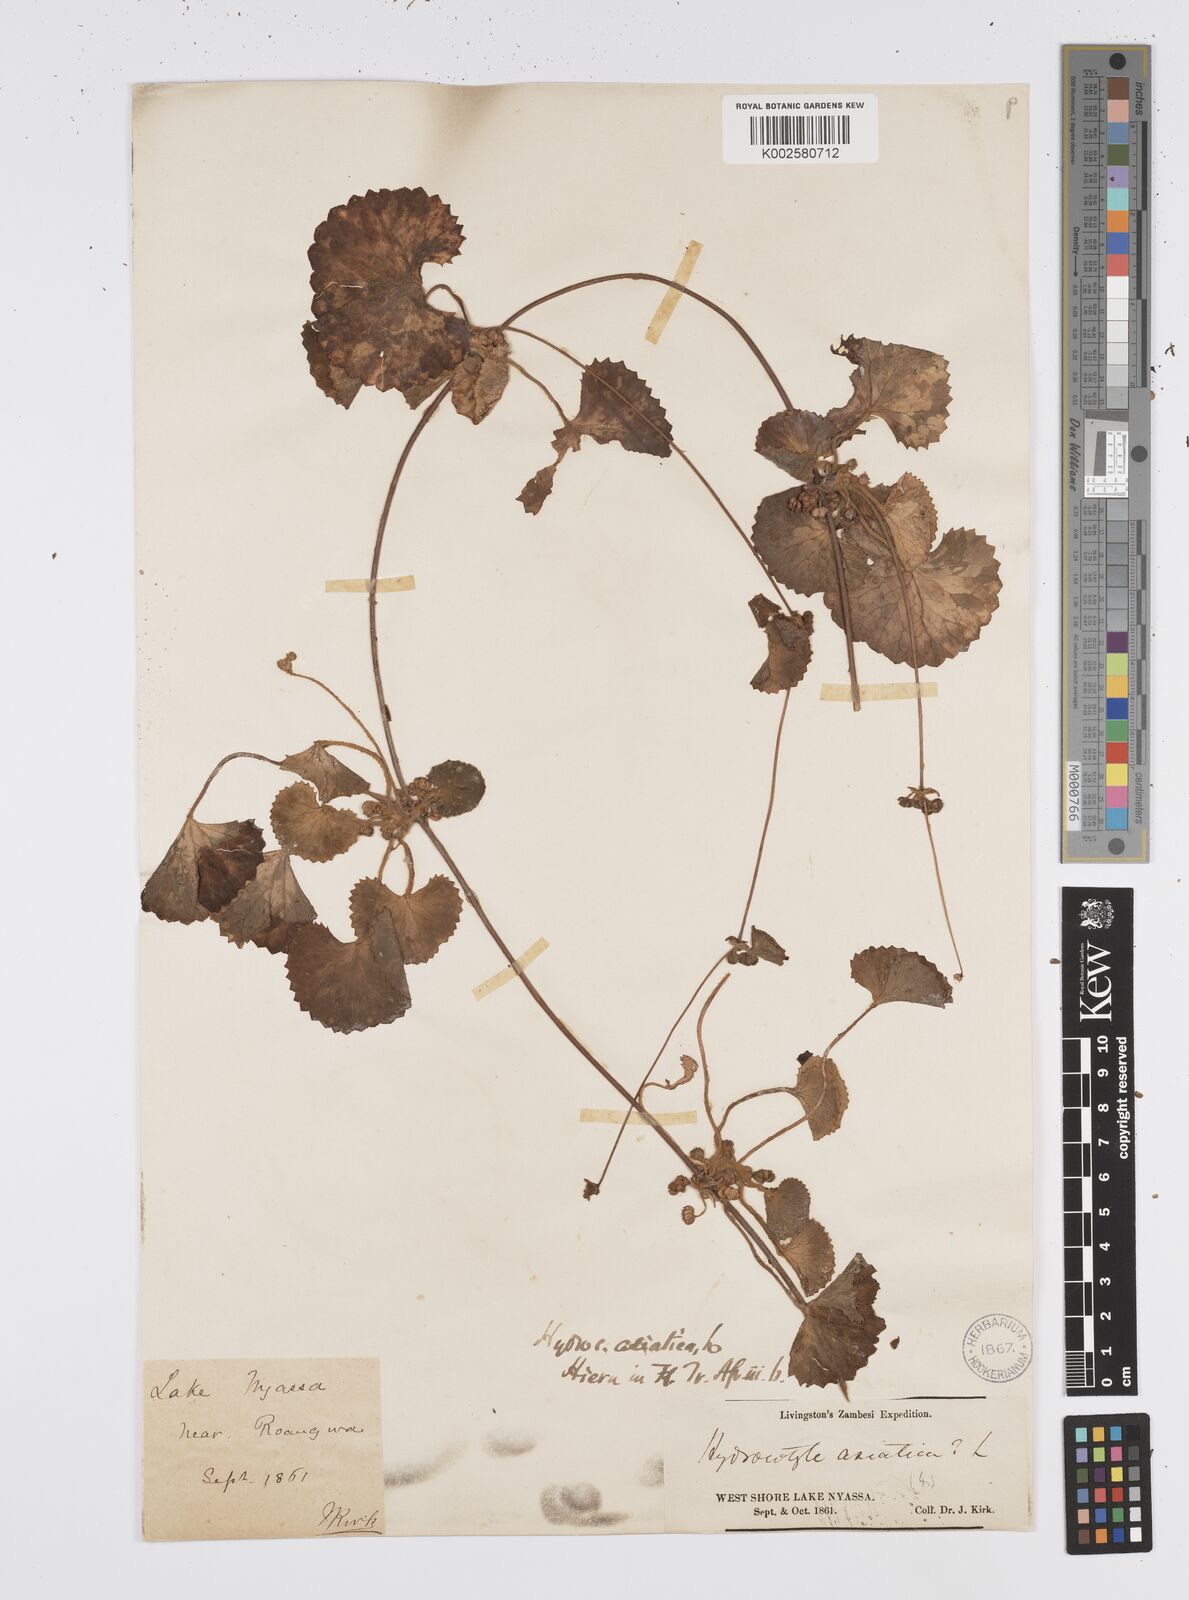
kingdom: Plantae
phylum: Tracheophyta
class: Magnoliopsida
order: Apiales
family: Apiaceae
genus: Centella
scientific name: Centella asiatica
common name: Spadeleaf
